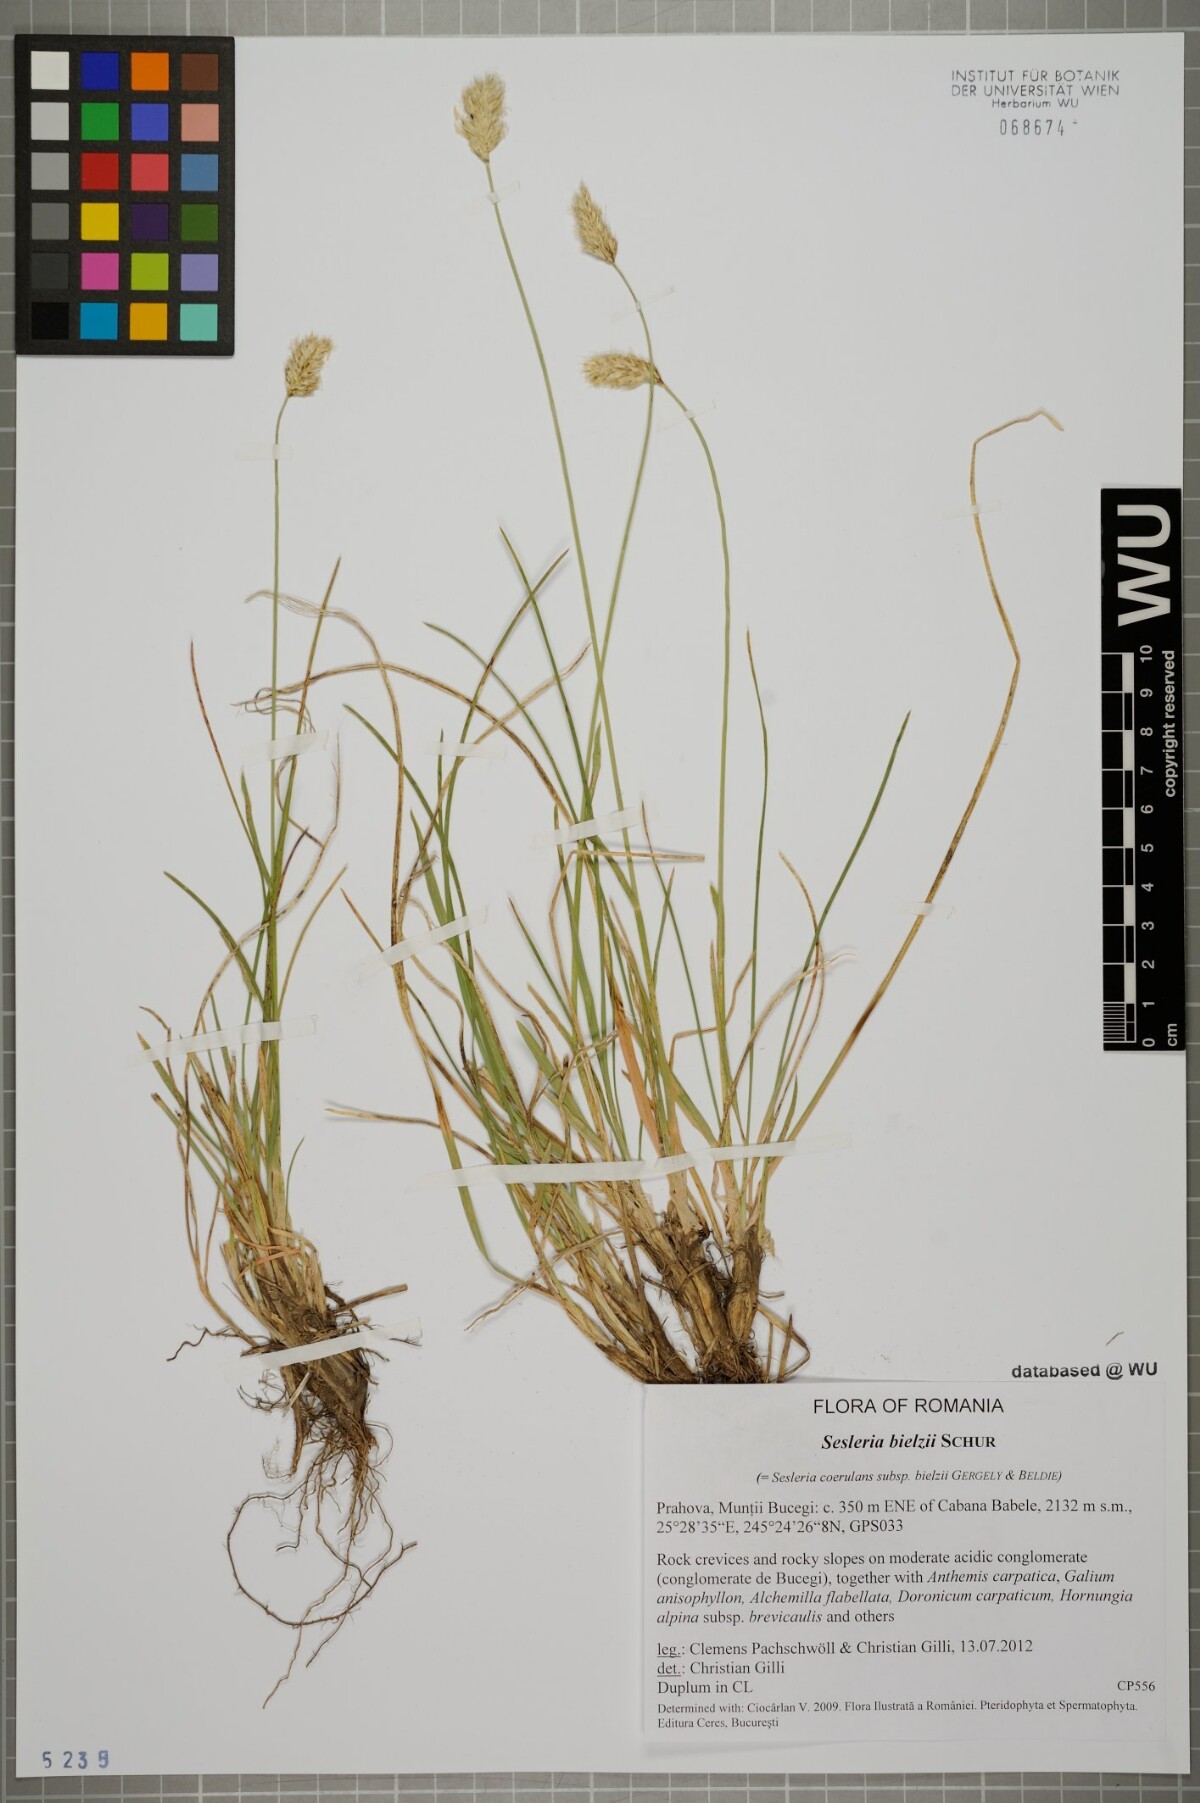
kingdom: Plantae
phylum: Tracheophyta
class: Liliopsida
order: Poales
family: Poaceae
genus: Sesleria
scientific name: Sesleria bielzii
